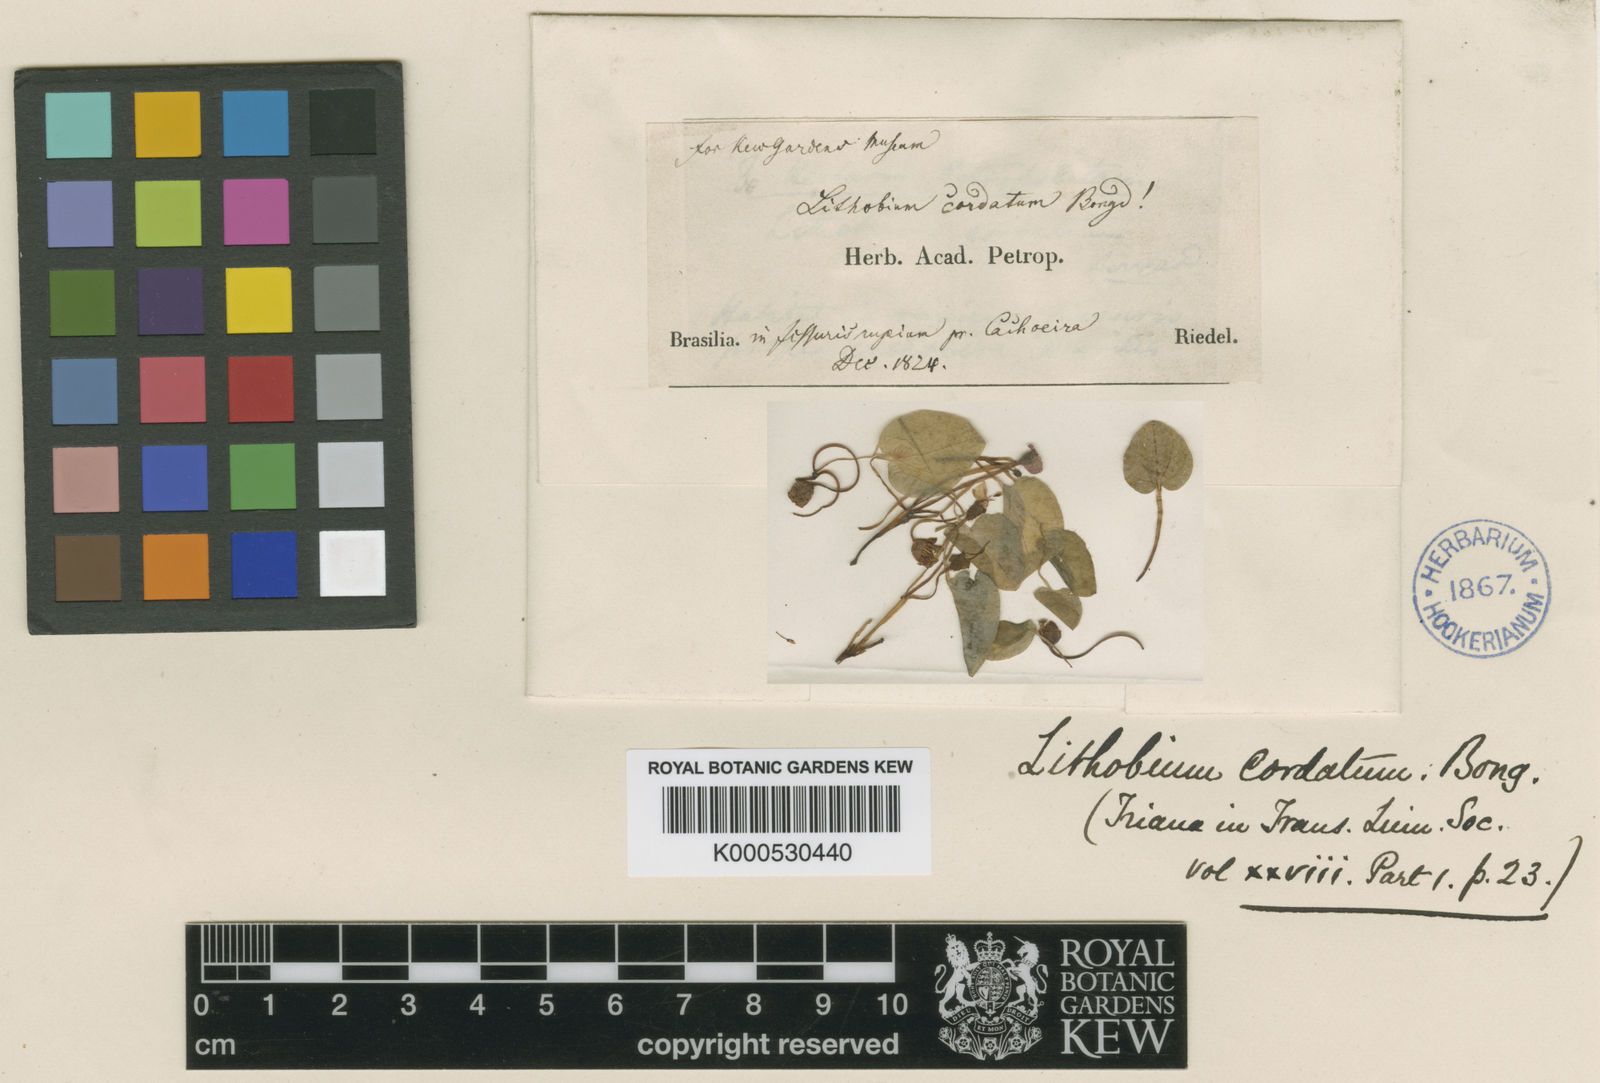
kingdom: Plantae
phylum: Tracheophyta
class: Magnoliopsida
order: Myrtales
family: Melastomataceae
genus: Lithobium
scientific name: Lithobium cordatum
